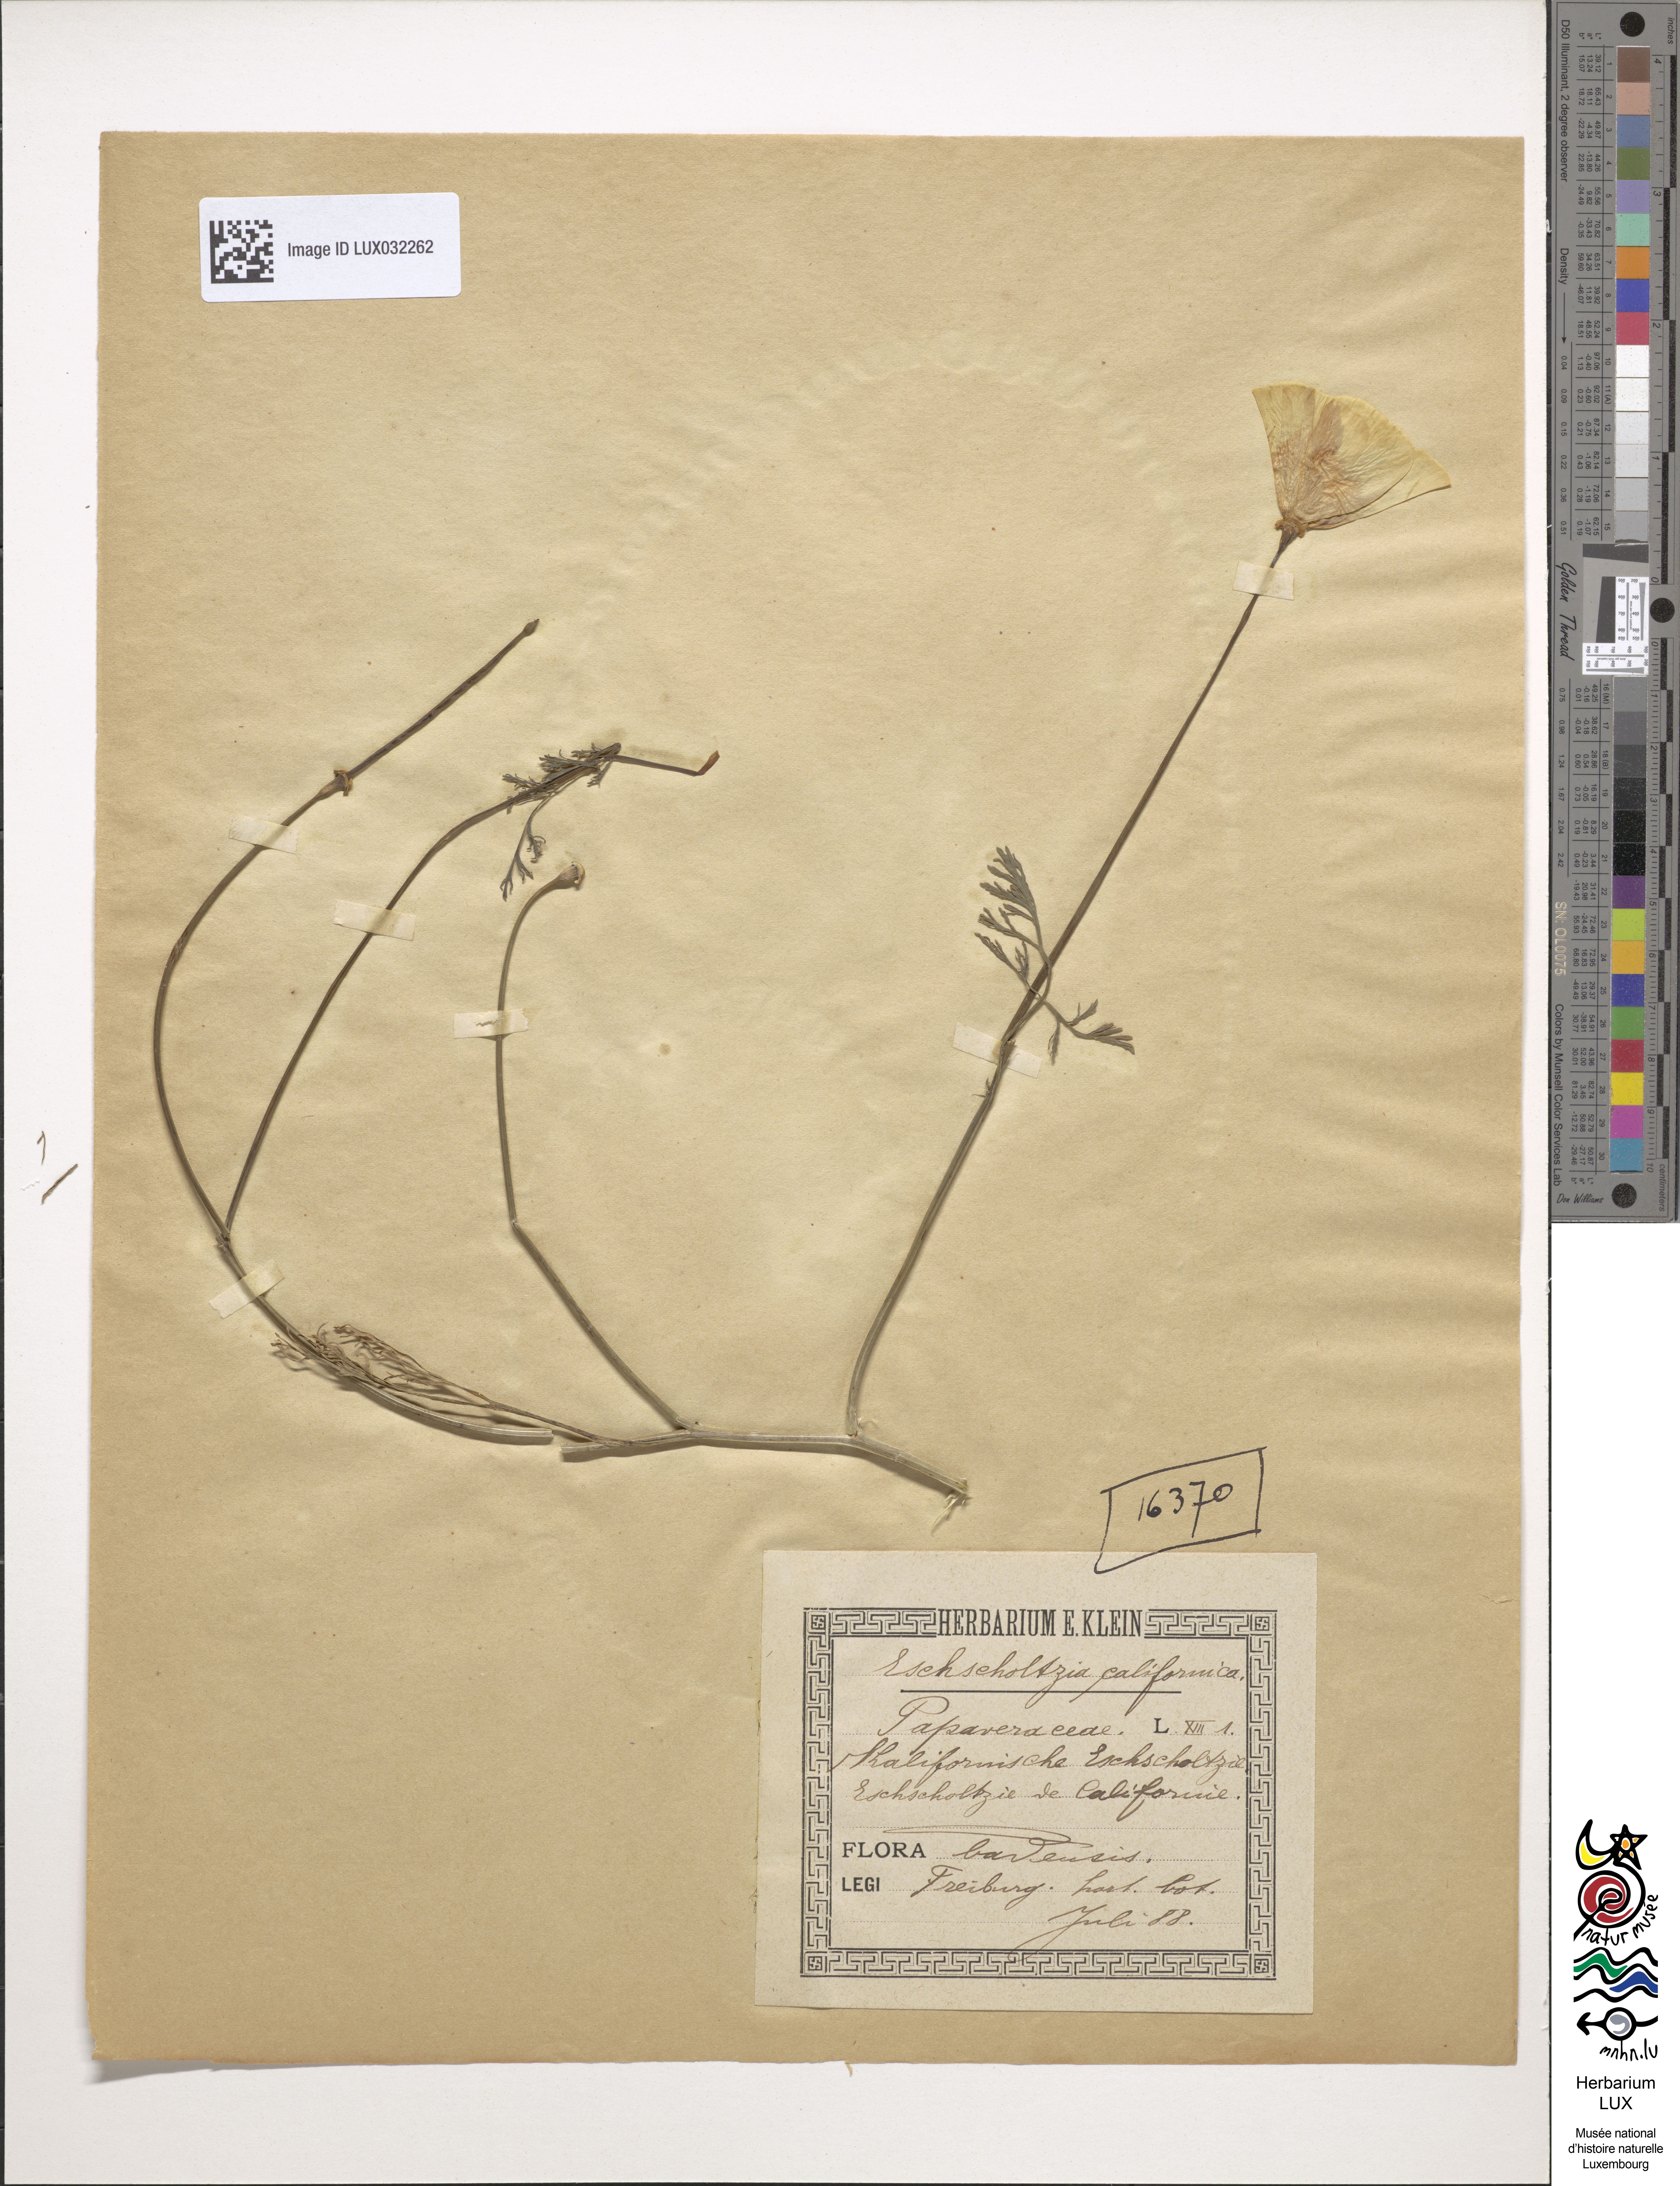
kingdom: Plantae
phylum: Tracheophyta
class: Magnoliopsida
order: Ranunculales
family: Papaveraceae
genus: Eschscholzia
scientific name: Eschscholzia californica
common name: California poppy
